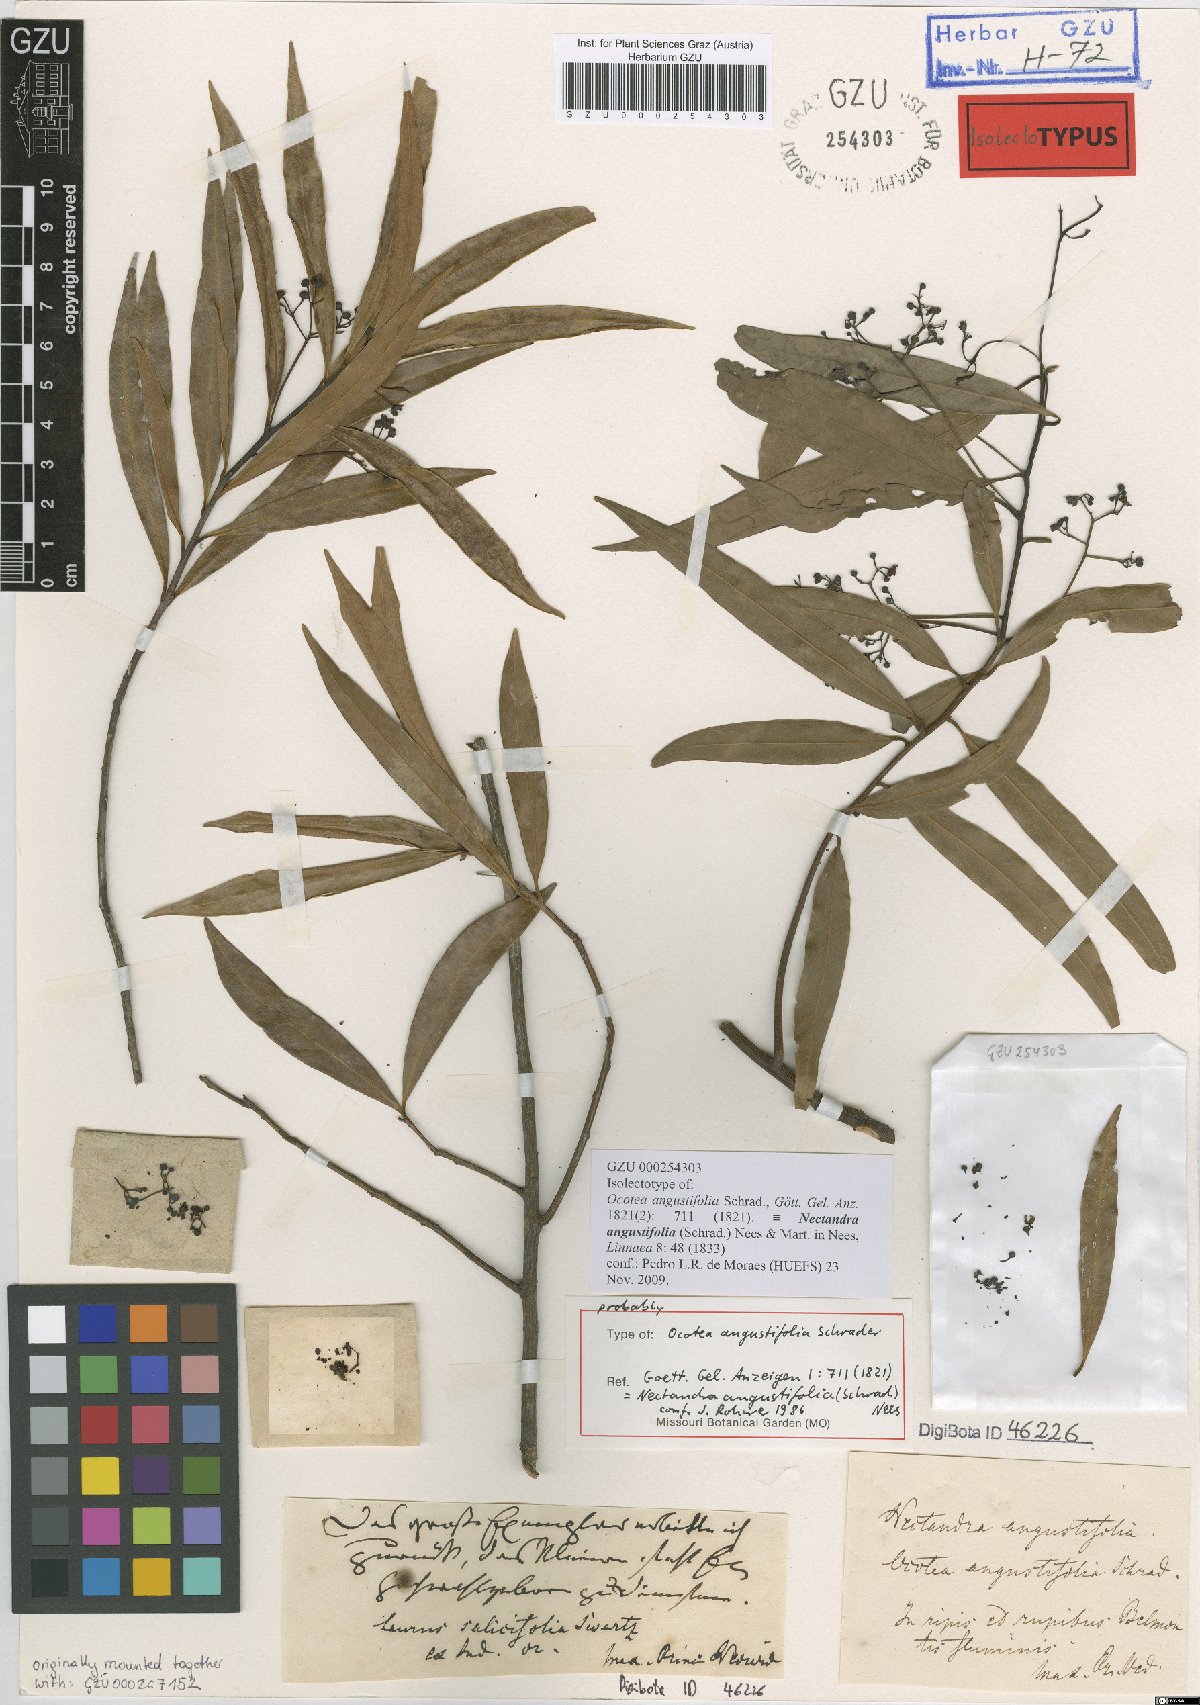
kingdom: Plantae
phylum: Tracheophyta
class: Magnoliopsida
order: Laurales
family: Lauraceae
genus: Nectandra
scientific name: Nectandra angustifolia
